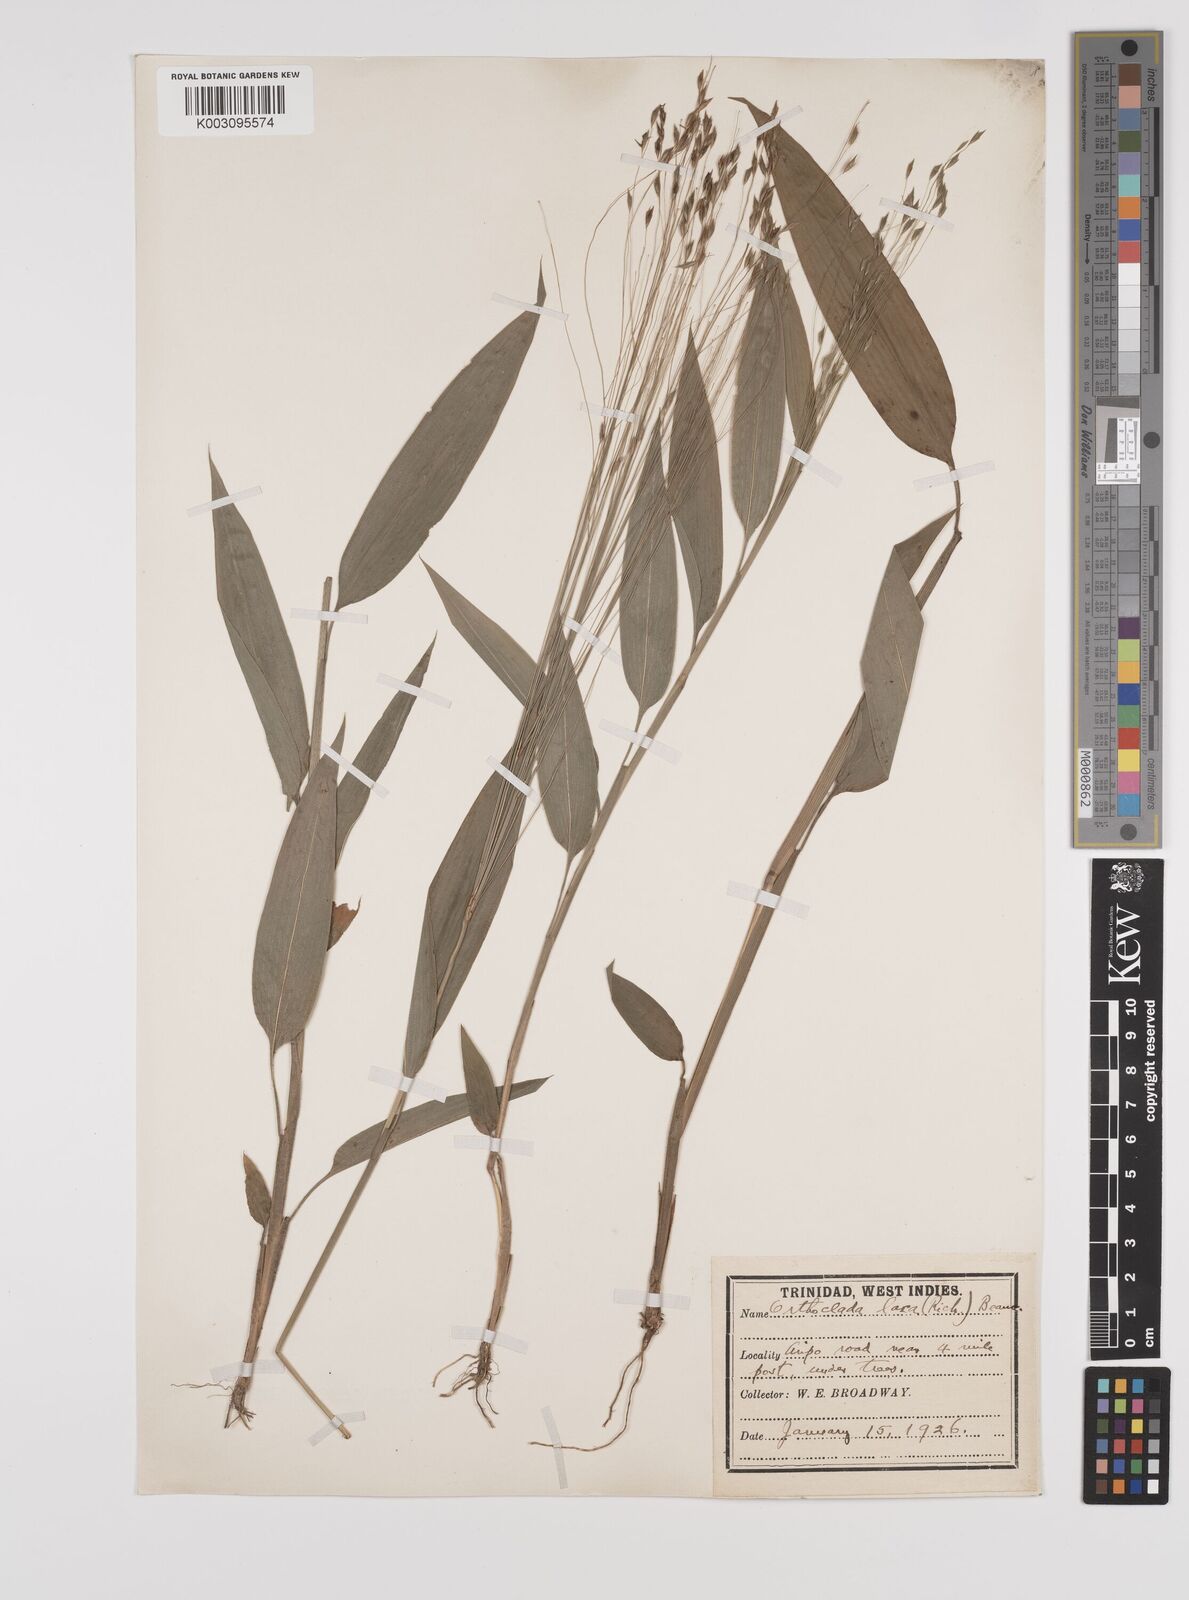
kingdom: Plantae
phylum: Tracheophyta
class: Liliopsida
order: Poales
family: Poaceae
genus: Orthoclada
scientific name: Orthoclada laxa
